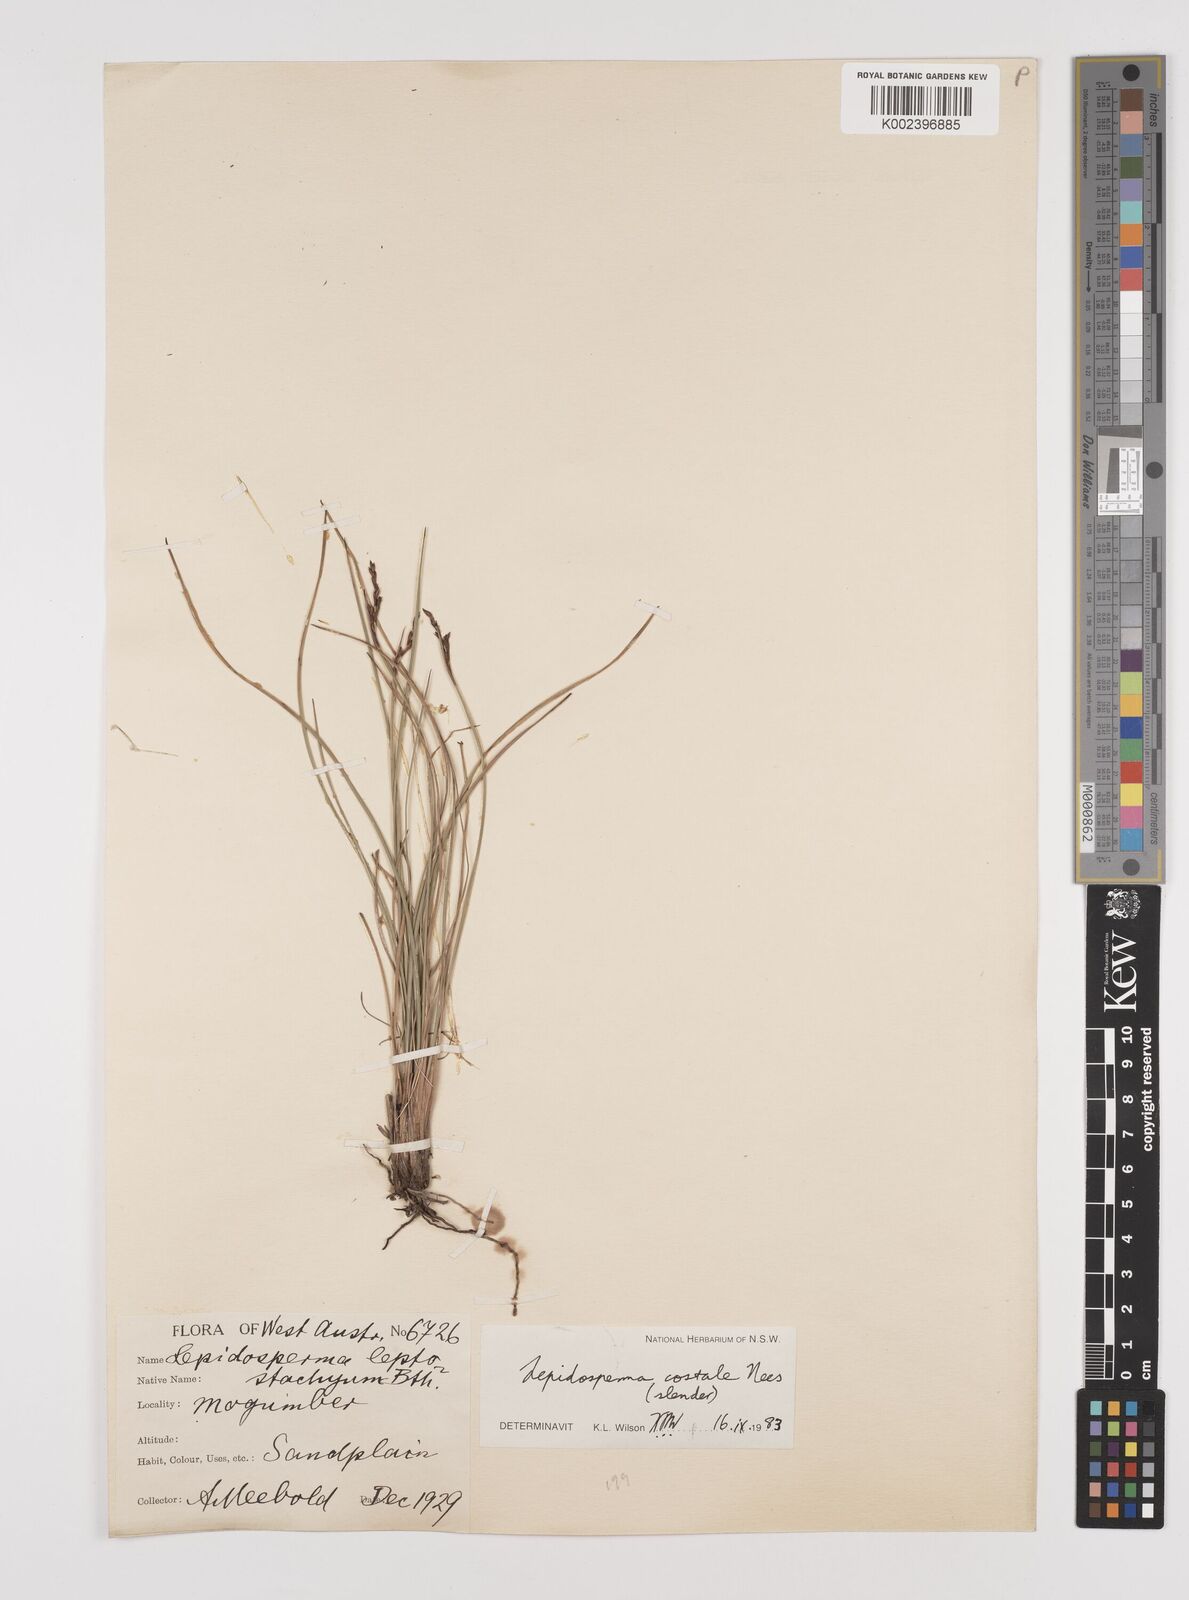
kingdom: Plantae
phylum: Tracheophyta
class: Liliopsida
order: Poales
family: Cyperaceae
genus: Lepidosperma
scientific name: Lepidosperma costale
